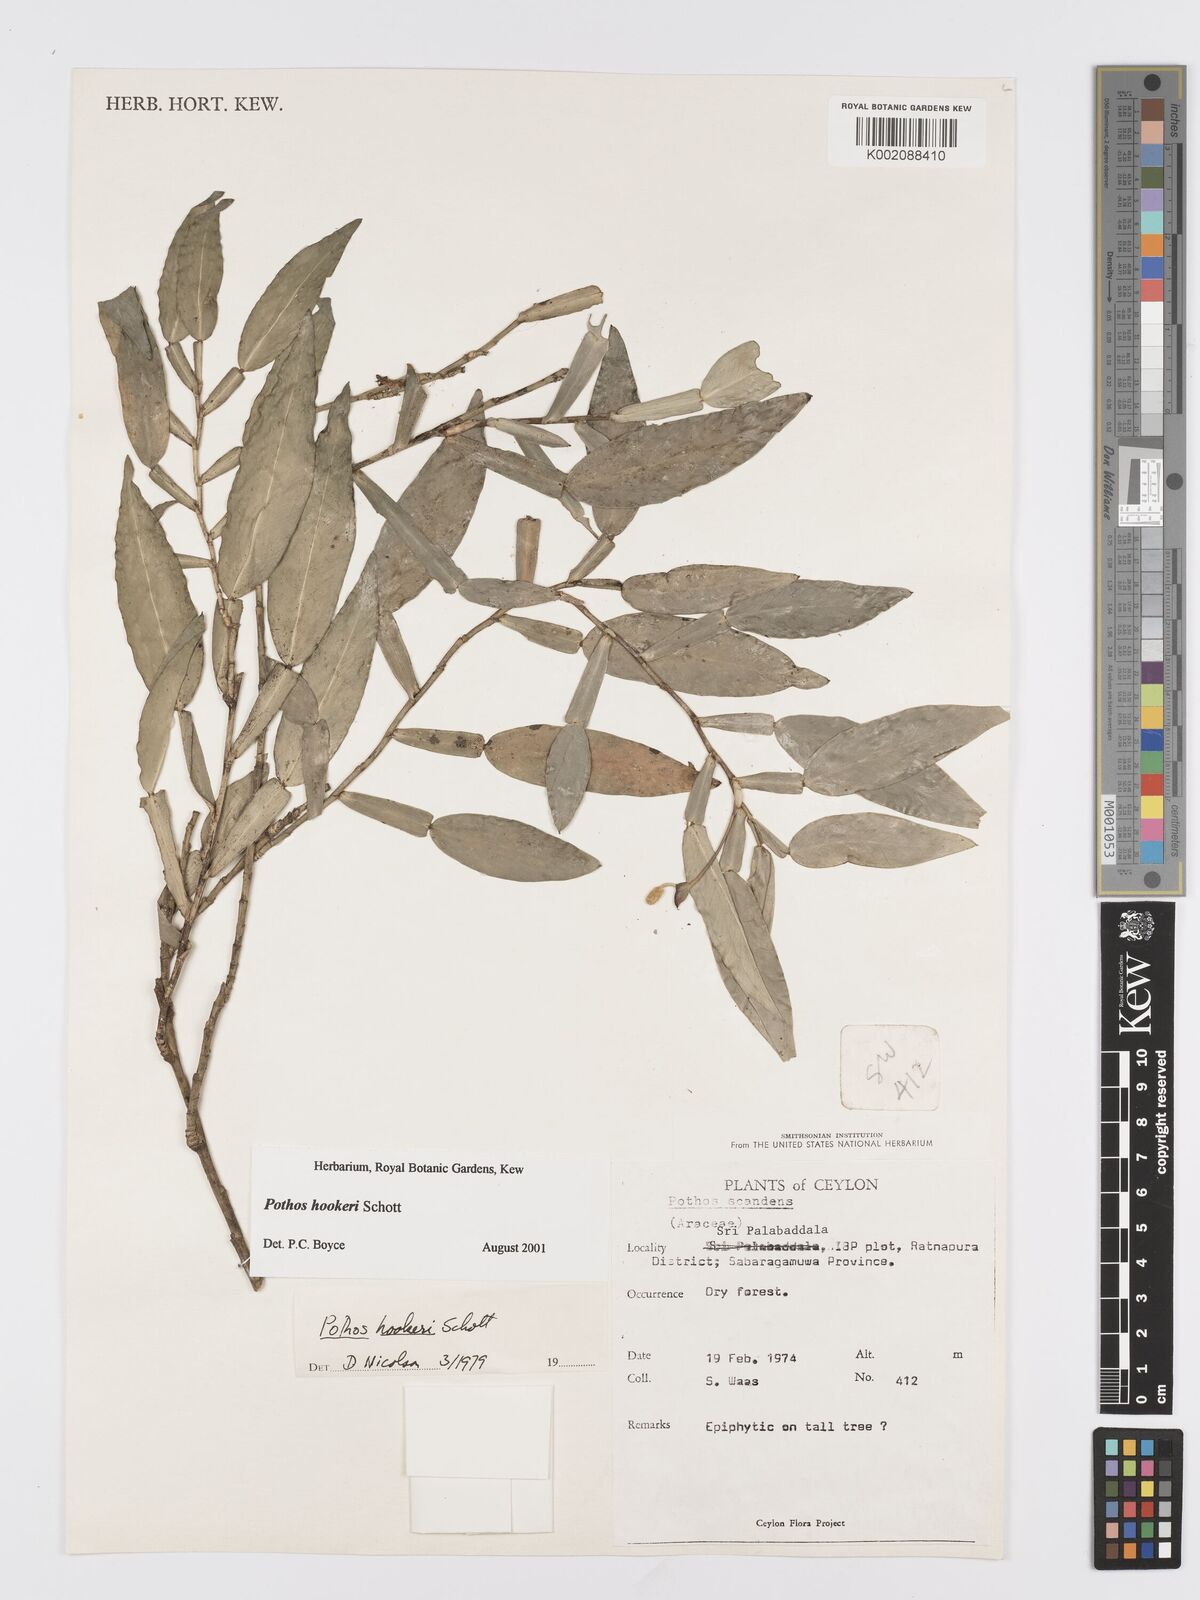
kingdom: Plantae
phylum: Tracheophyta
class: Liliopsida
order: Alismatales
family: Araceae
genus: Pothos
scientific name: Pothos hookeri
